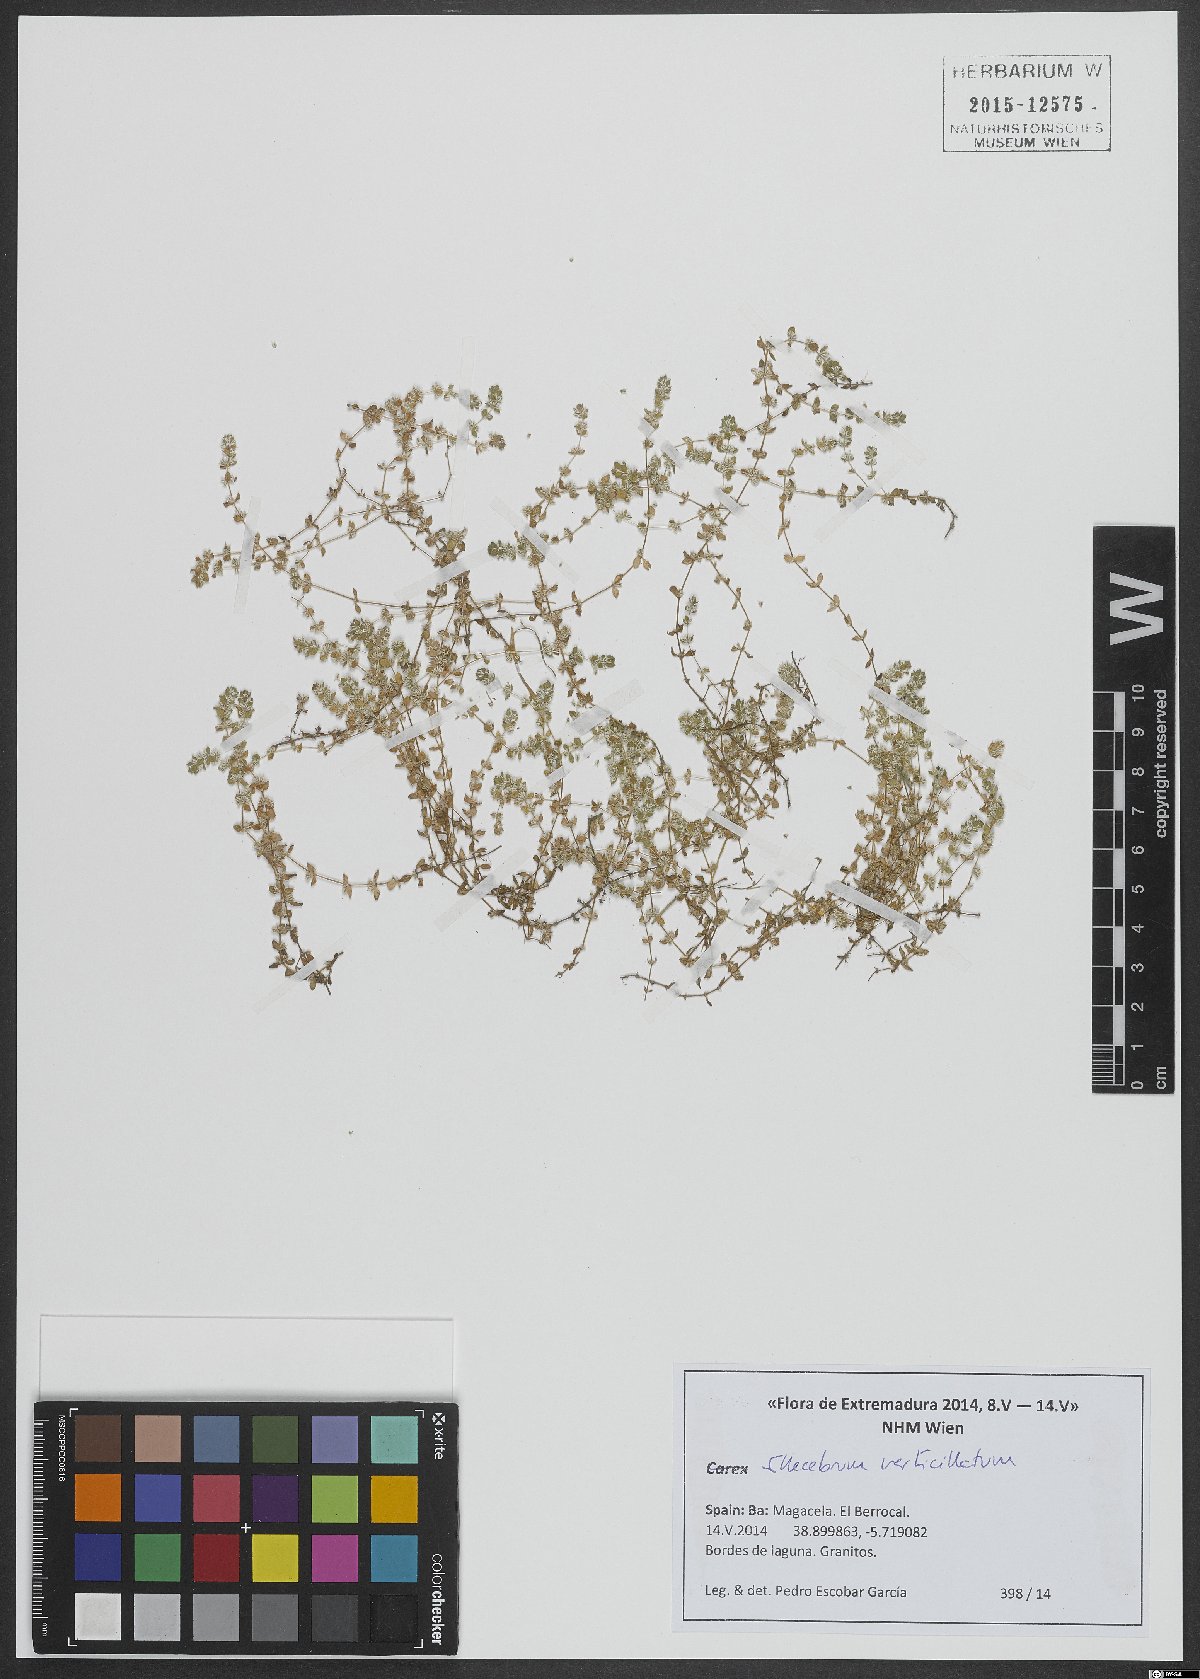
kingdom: Plantae
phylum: Tracheophyta
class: Magnoliopsida
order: Caryophyllales
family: Caryophyllaceae
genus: Illecebrum
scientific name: Illecebrum verticillatum
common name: Coral necklace
